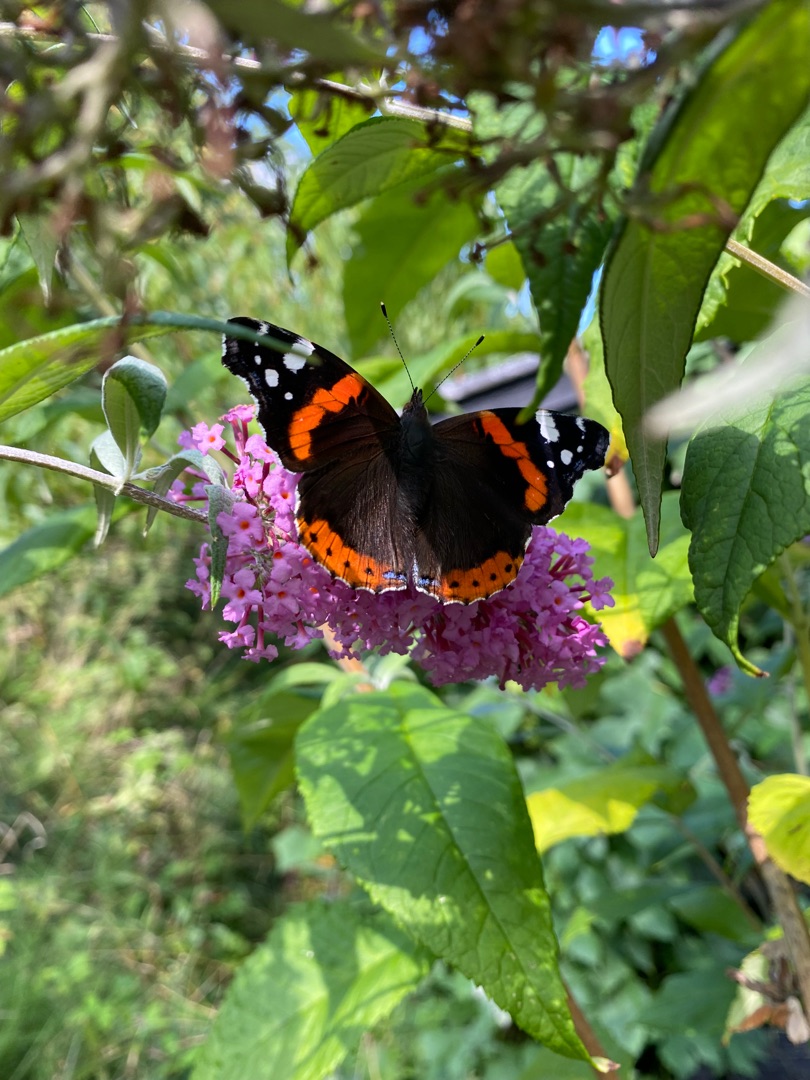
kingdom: Animalia
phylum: Arthropoda
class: Insecta
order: Lepidoptera
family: Nymphalidae
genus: Vanessa
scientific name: Vanessa atalanta
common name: Admiral
